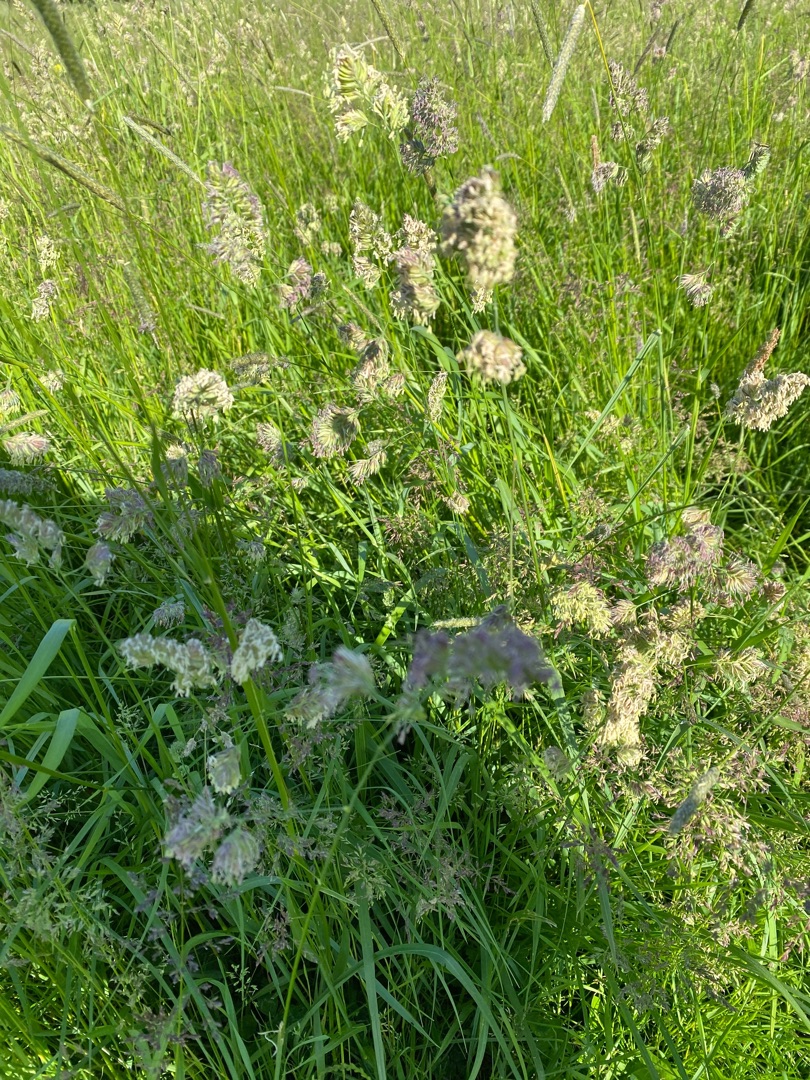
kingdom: Plantae
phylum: Tracheophyta
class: Liliopsida
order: Poales
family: Poaceae
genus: Dactylis
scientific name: Dactylis glomerata
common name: Almindelig hundegræs
